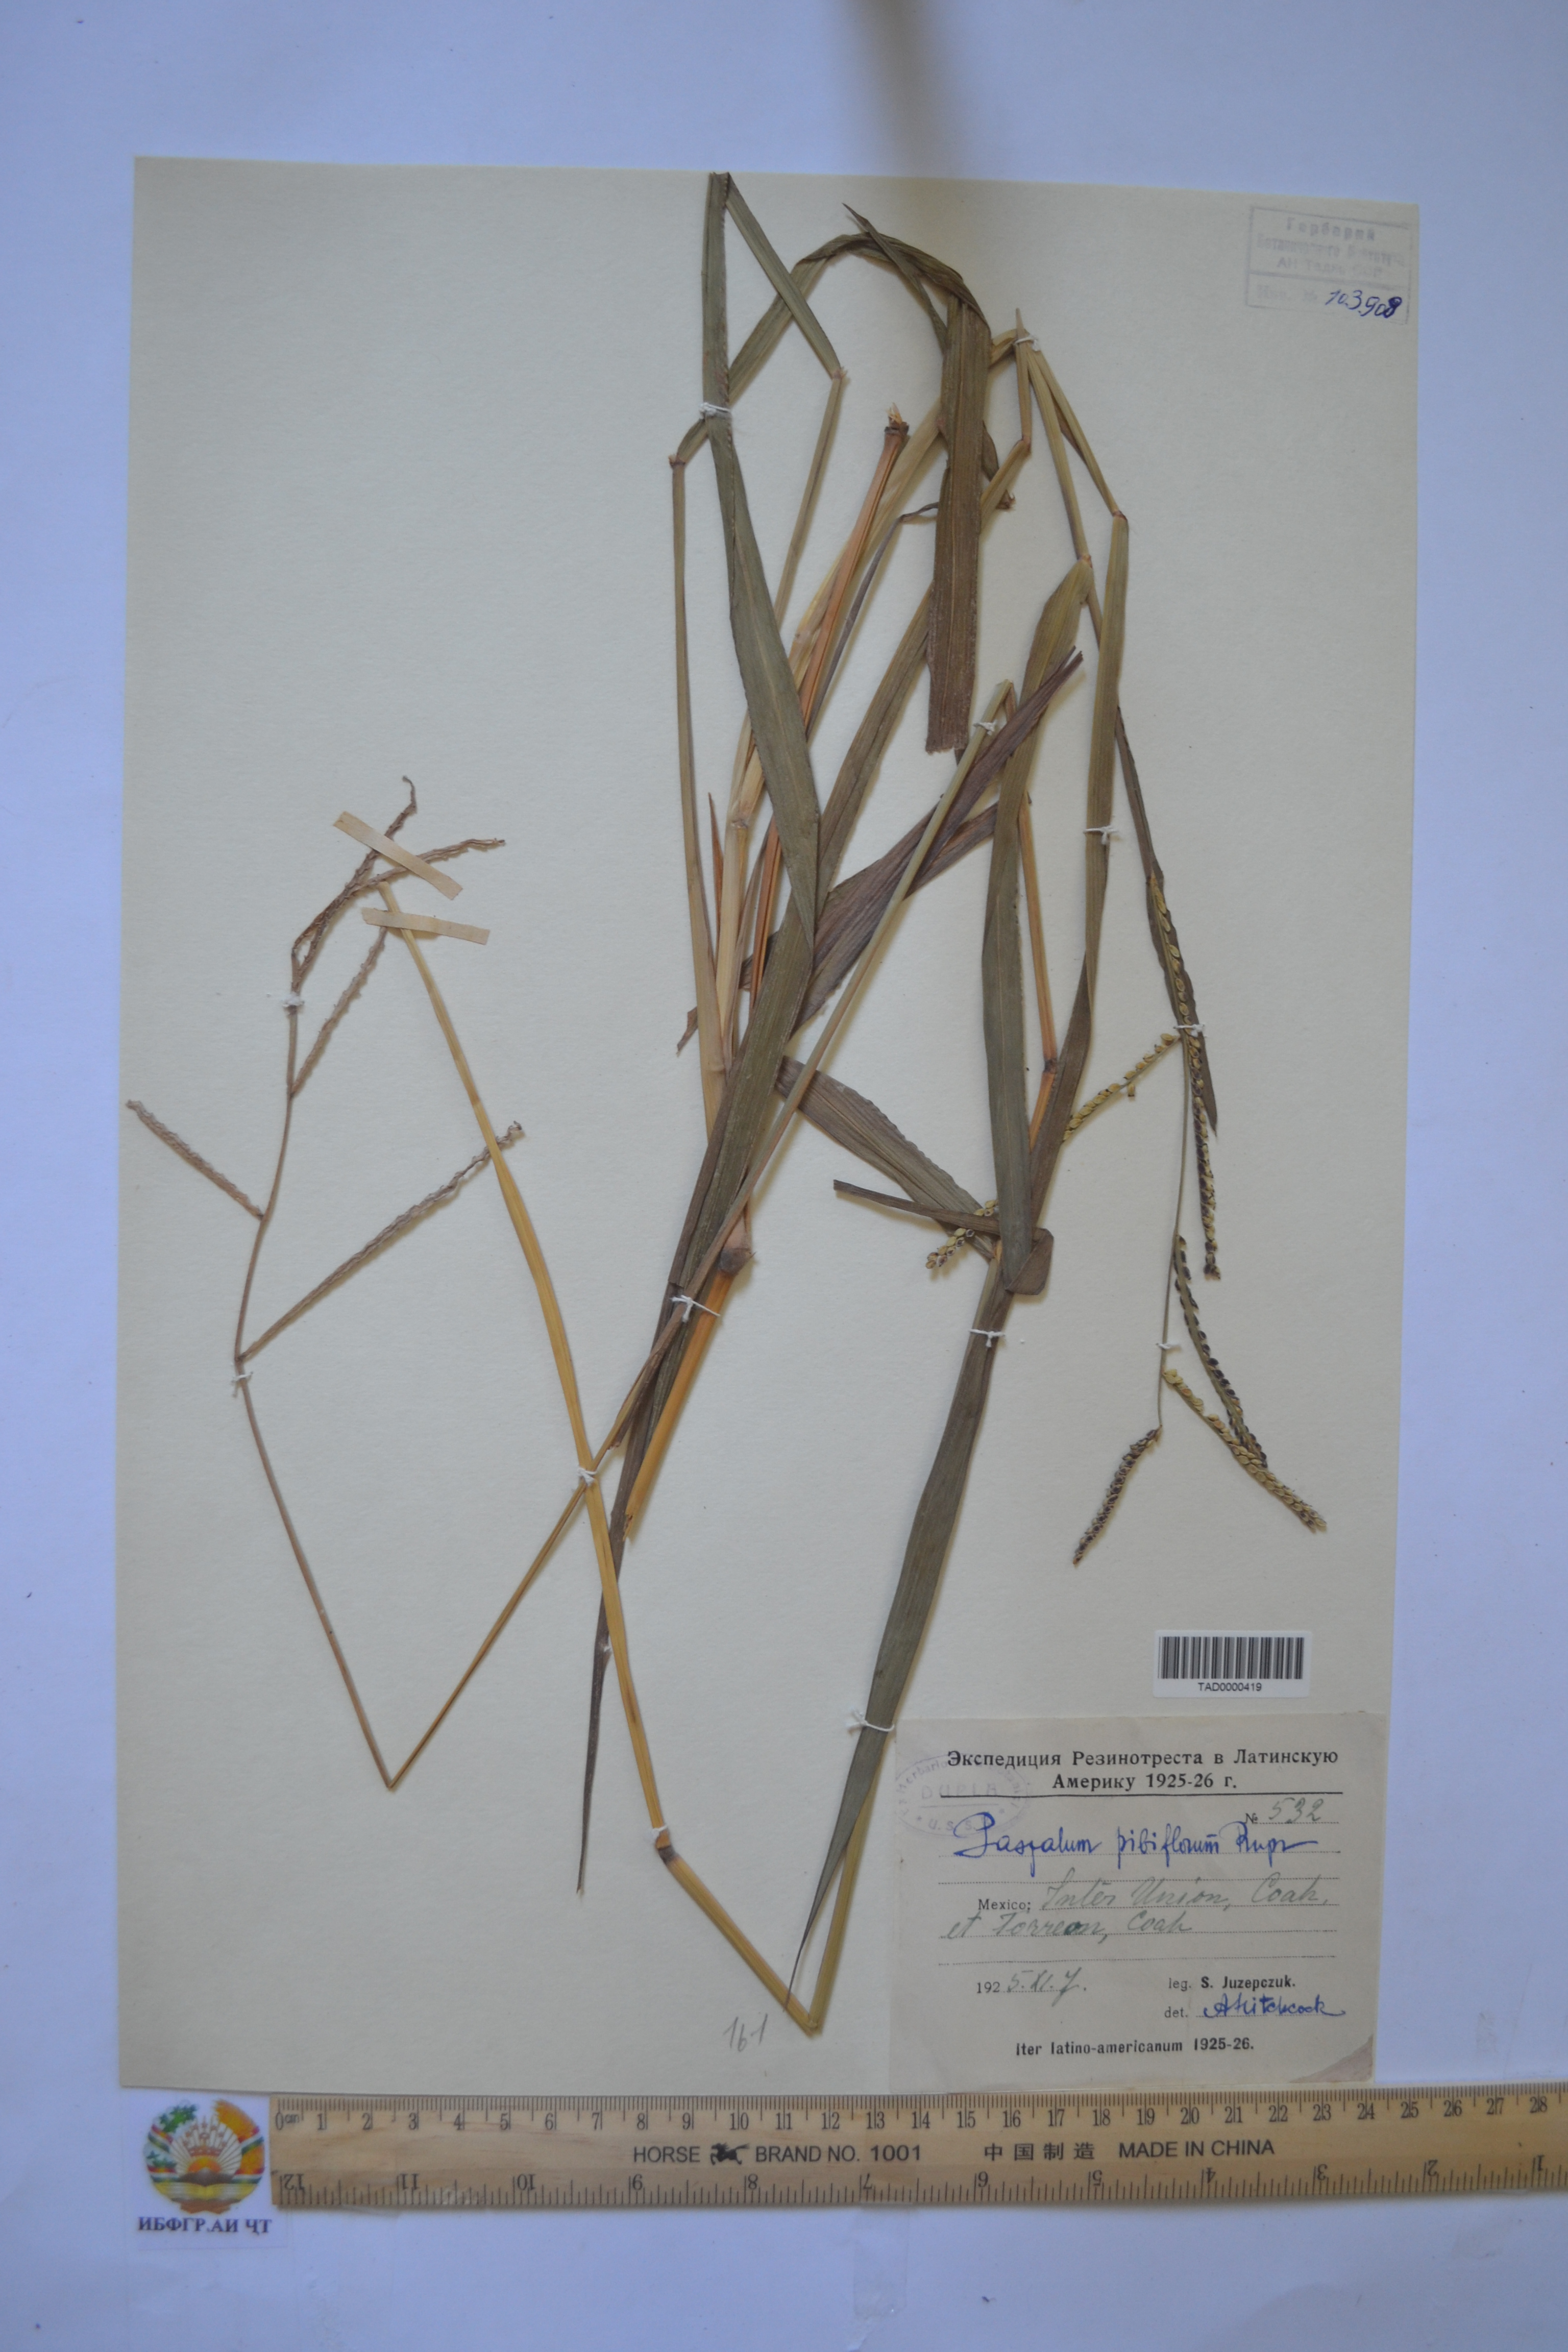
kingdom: Plantae
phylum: Tracheophyta
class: Liliopsida
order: Poales
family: Poaceae
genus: Paspalum
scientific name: Paspalum
